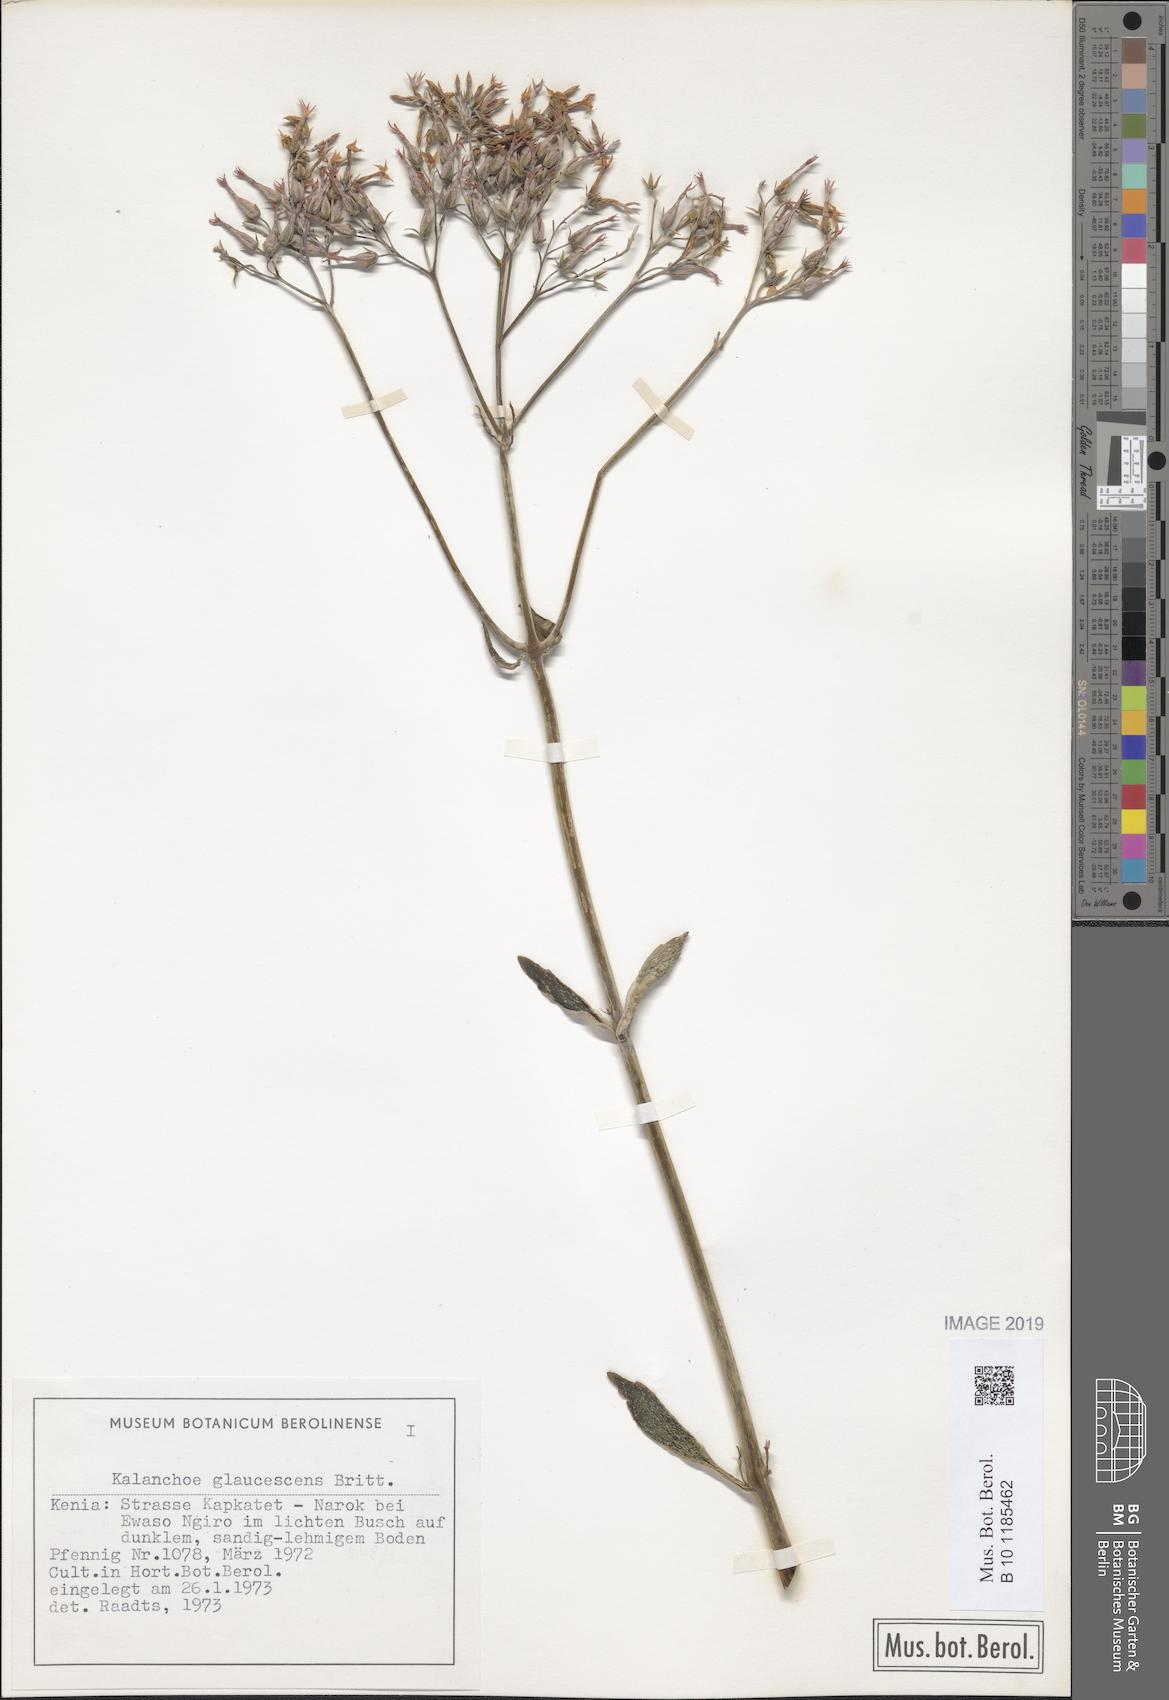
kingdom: Plantae
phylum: Tracheophyta
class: Magnoliopsida
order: Saxifragales
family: Crassulaceae
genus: Kalanchoe
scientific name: Kalanchoe glaucescens
